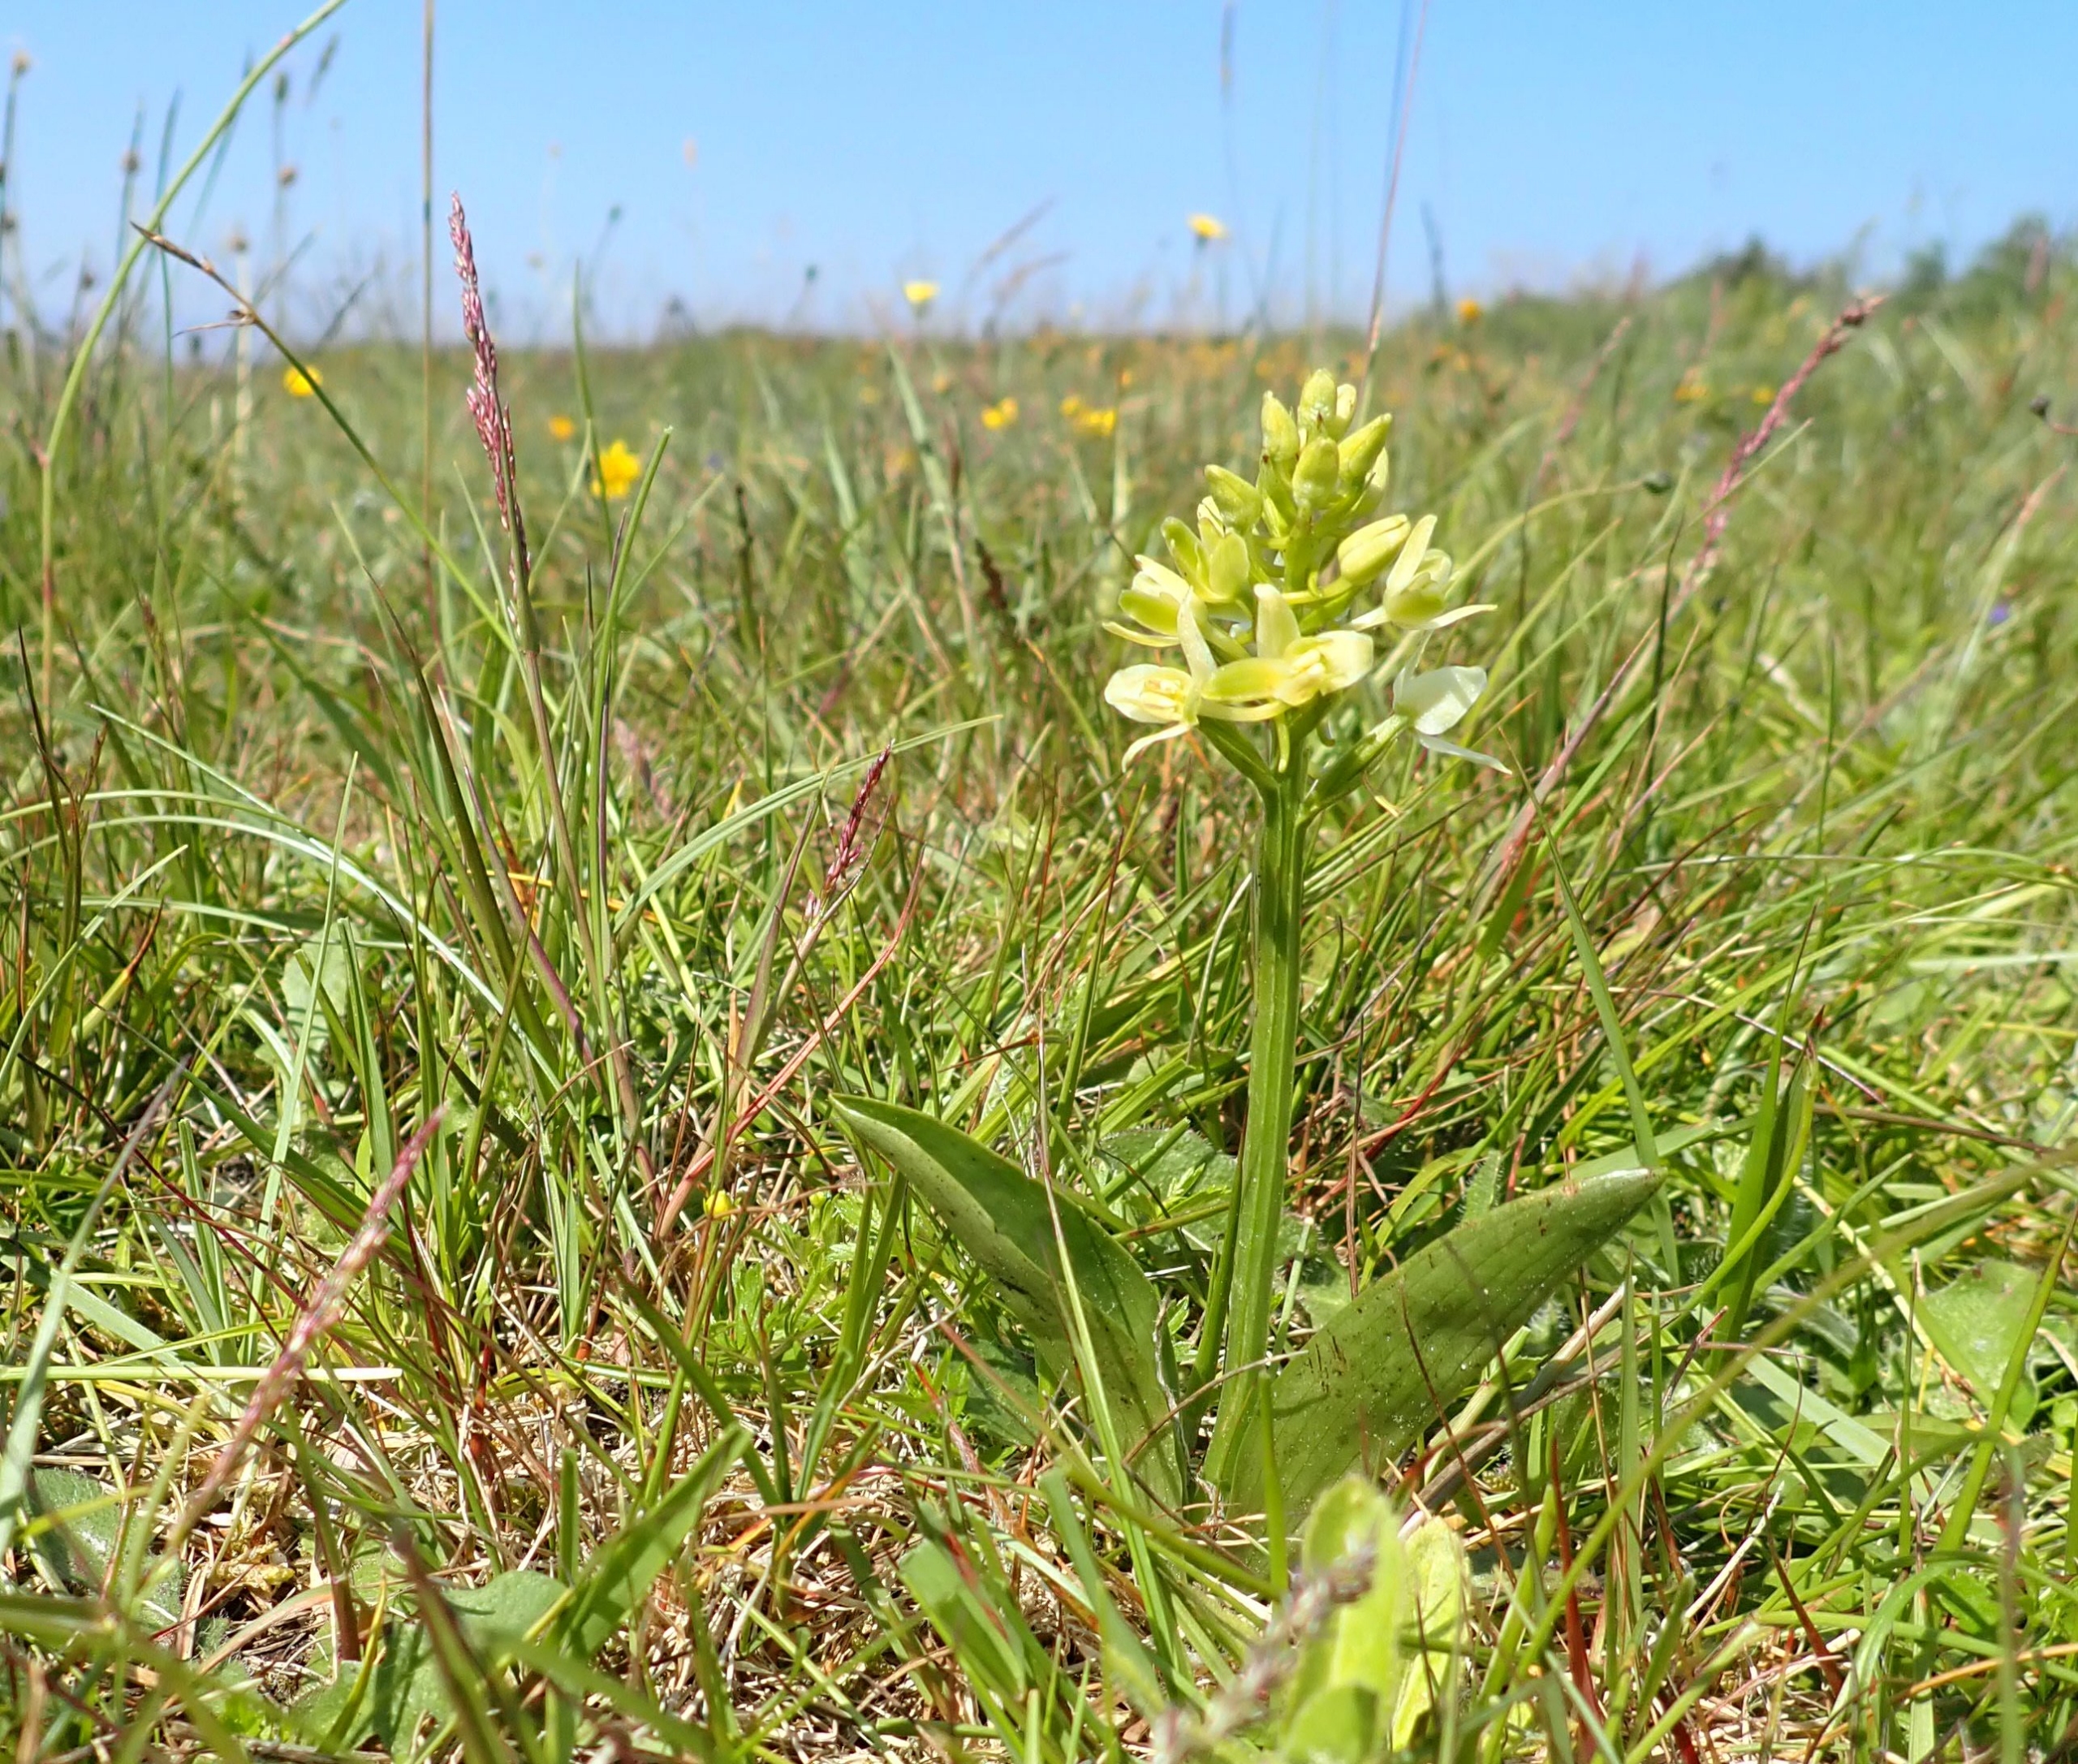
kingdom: Plantae
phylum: Tracheophyta
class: Liliopsida
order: Asparagales
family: Orchidaceae
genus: Platanthera
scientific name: Platanthera bifolia
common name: Bakke-gøgelilje
